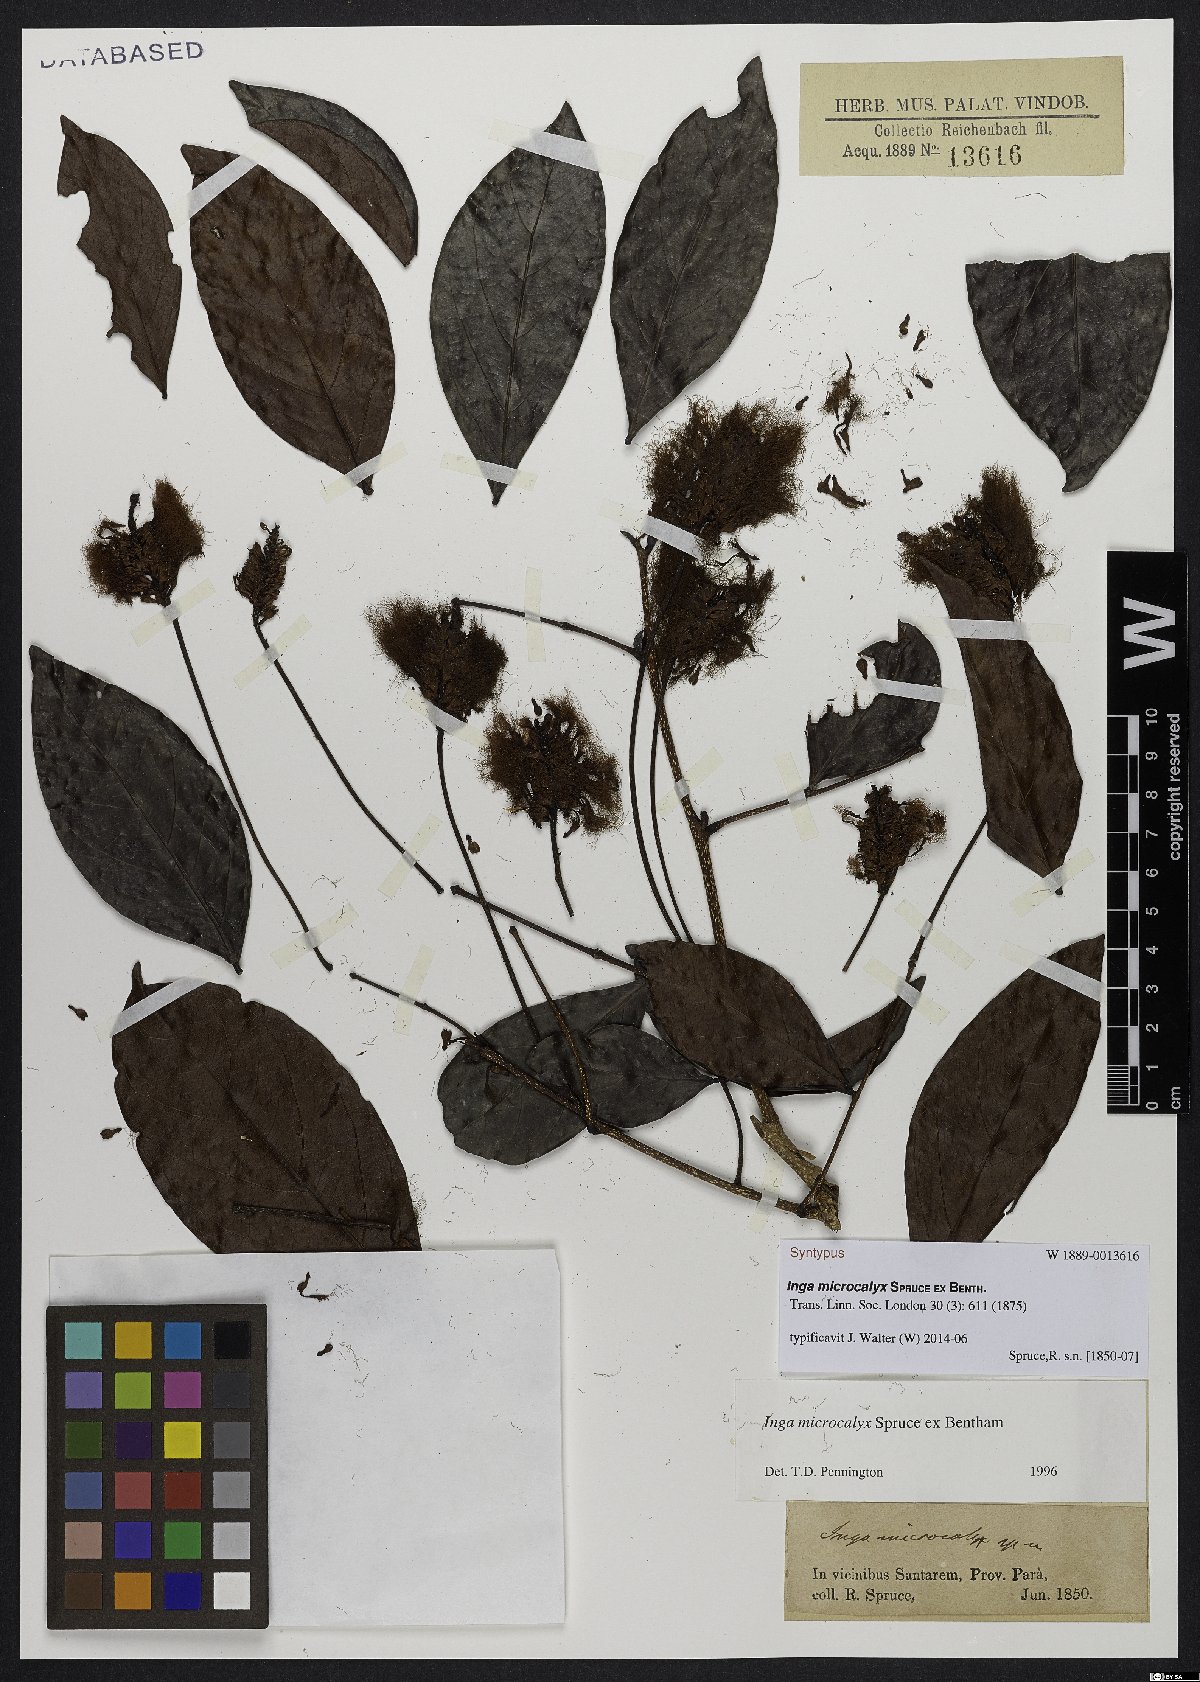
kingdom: Plantae
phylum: Tracheophyta
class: Magnoliopsida
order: Fabales
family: Fabaceae
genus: Inga
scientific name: Inga microcalyx
